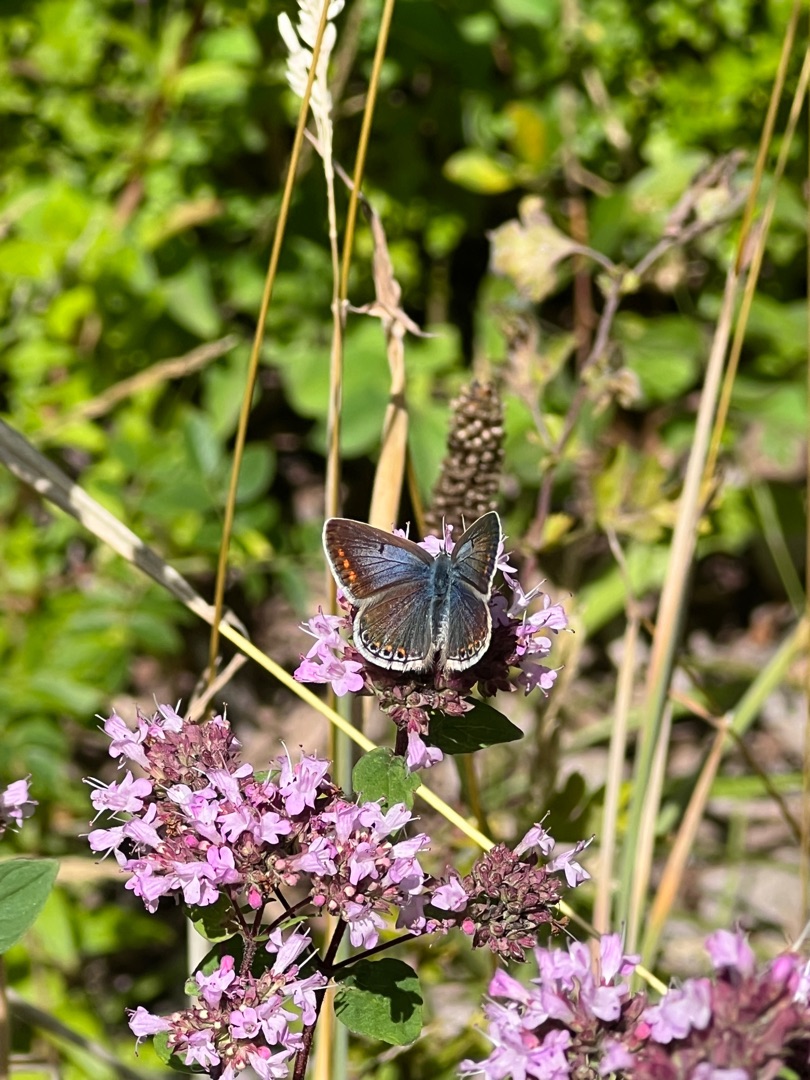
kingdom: Animalia
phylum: Arthropoda
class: Insecta
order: Lepidoptera
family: Lycaenidae
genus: Polyommatus
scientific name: Polyommatus icarus
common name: Almindelig blåfugl
